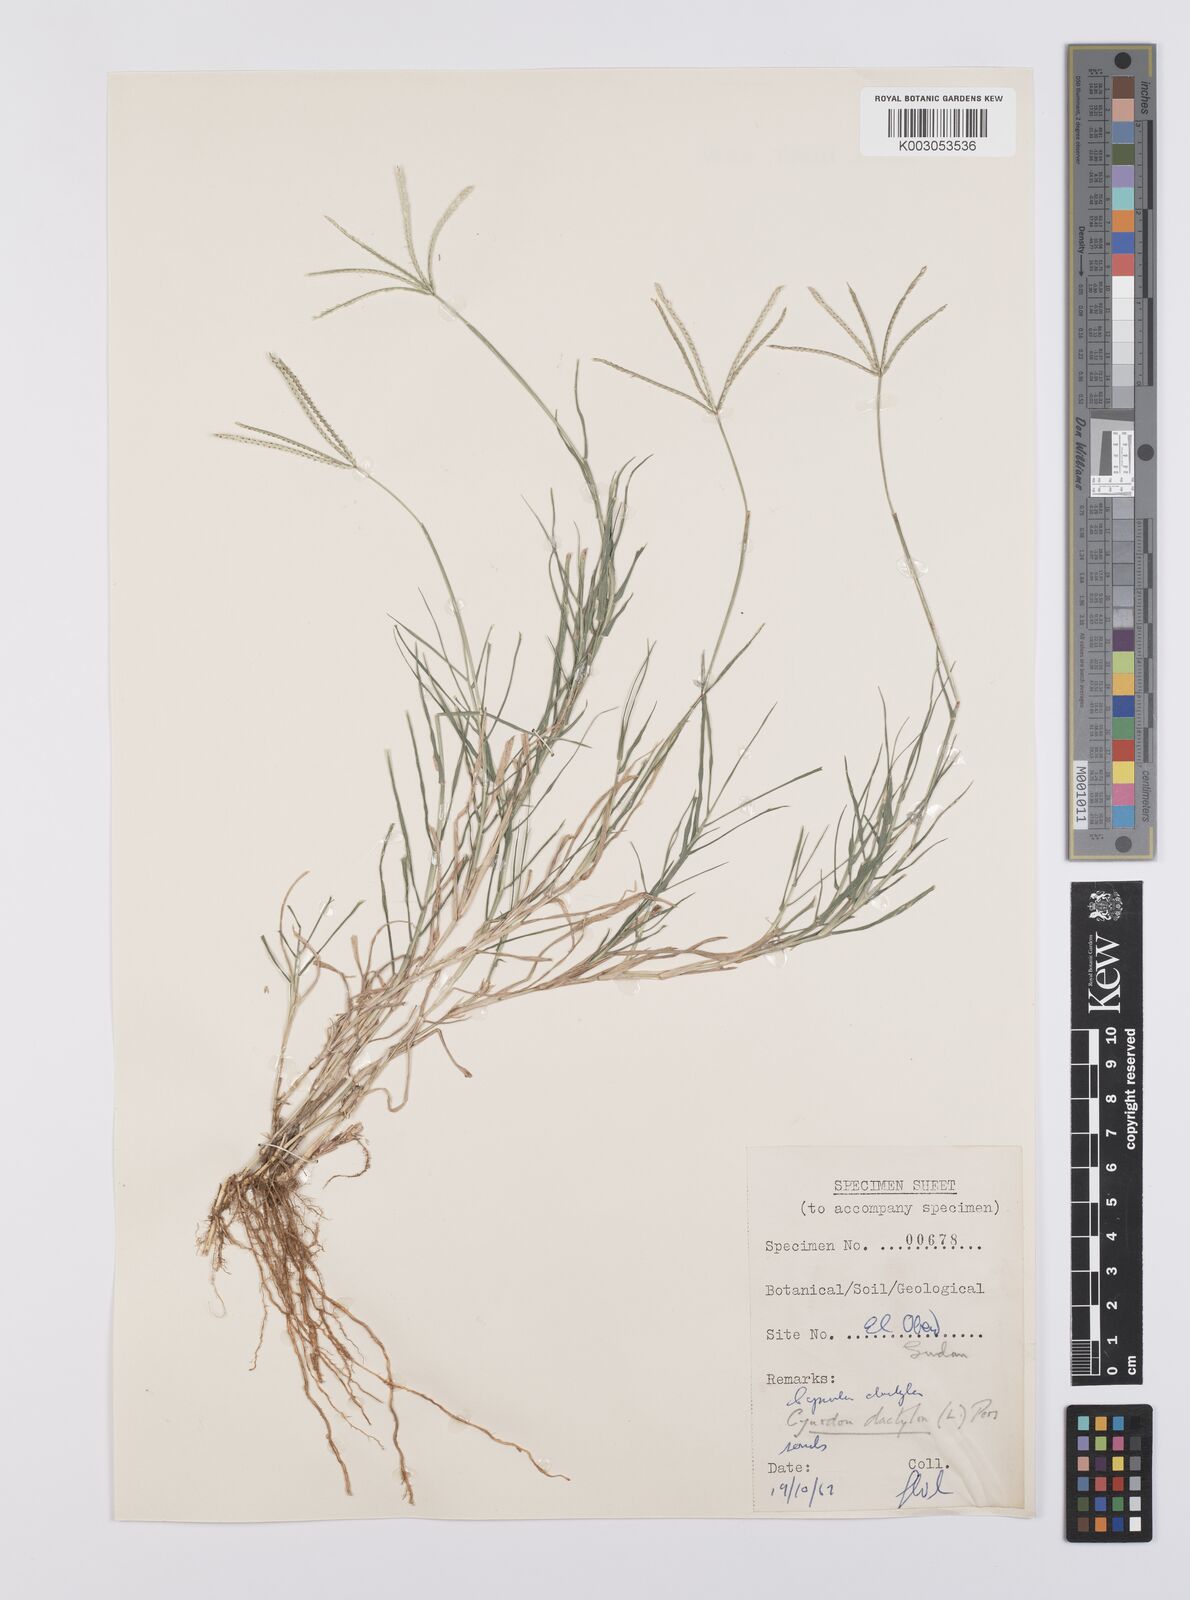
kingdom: Plantae
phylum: Tracheophyta
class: Liliopsida
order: Poales
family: Poaceae
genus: Cynodon
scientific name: Cynodon dactylon
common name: Bermuda grass
